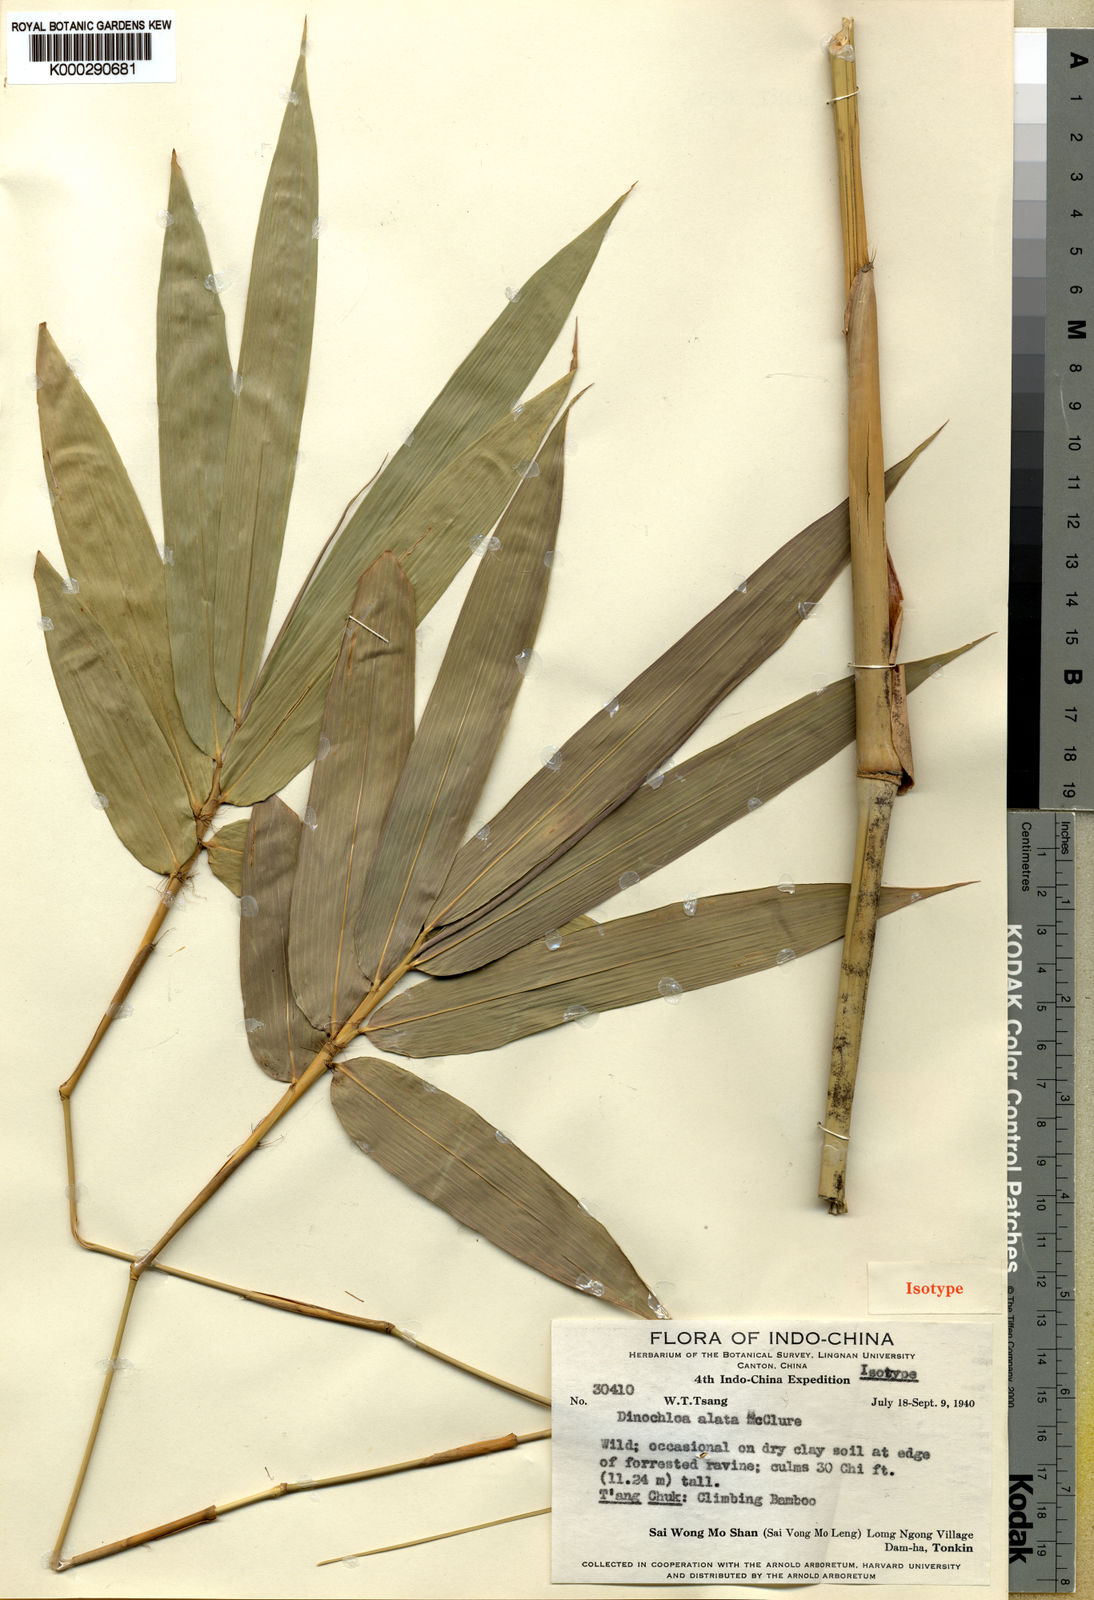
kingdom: Plantae
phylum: Tracheophyta
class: Liliopsida
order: Poales
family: Poaceae
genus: Dinochloa
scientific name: Dinochloa alata
